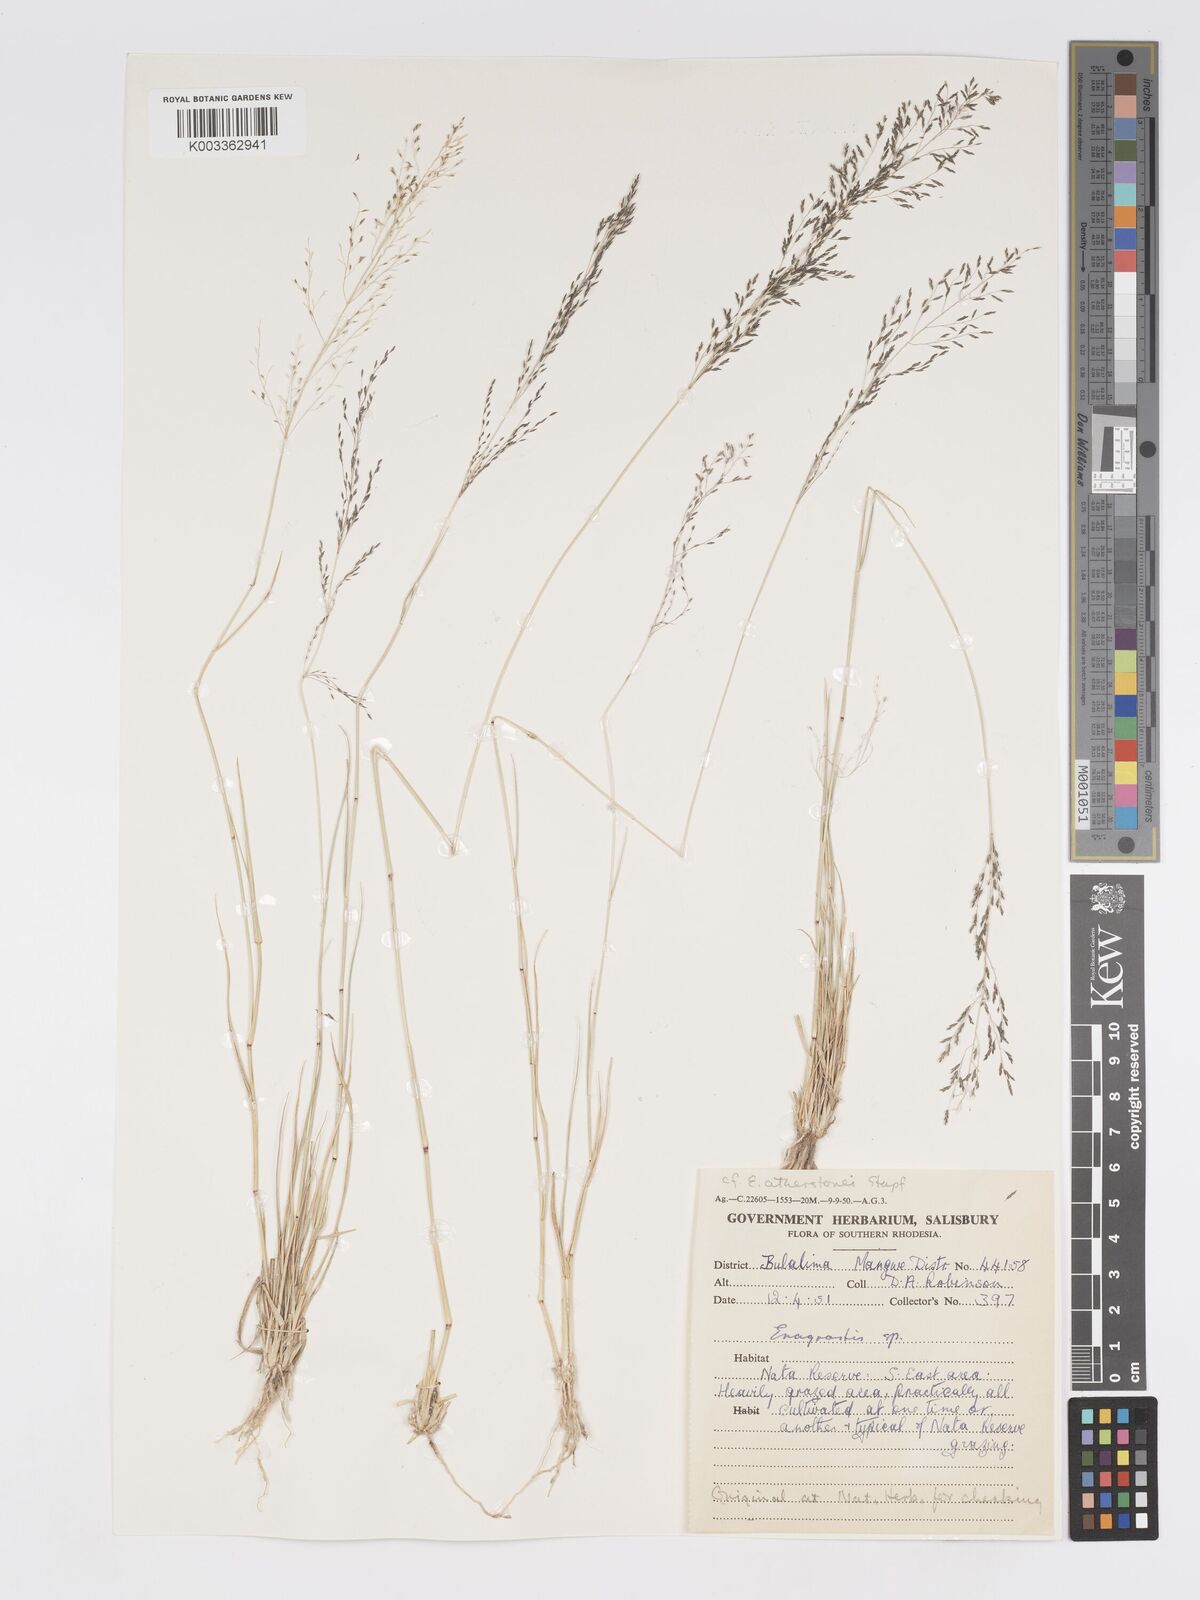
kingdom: Plantae
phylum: Tracheophyta
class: Liliopsida
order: Poales
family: Poaceae
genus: Eragrostis
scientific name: Eragrostis cylindriflora
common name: Cylinderflower lovegrass
